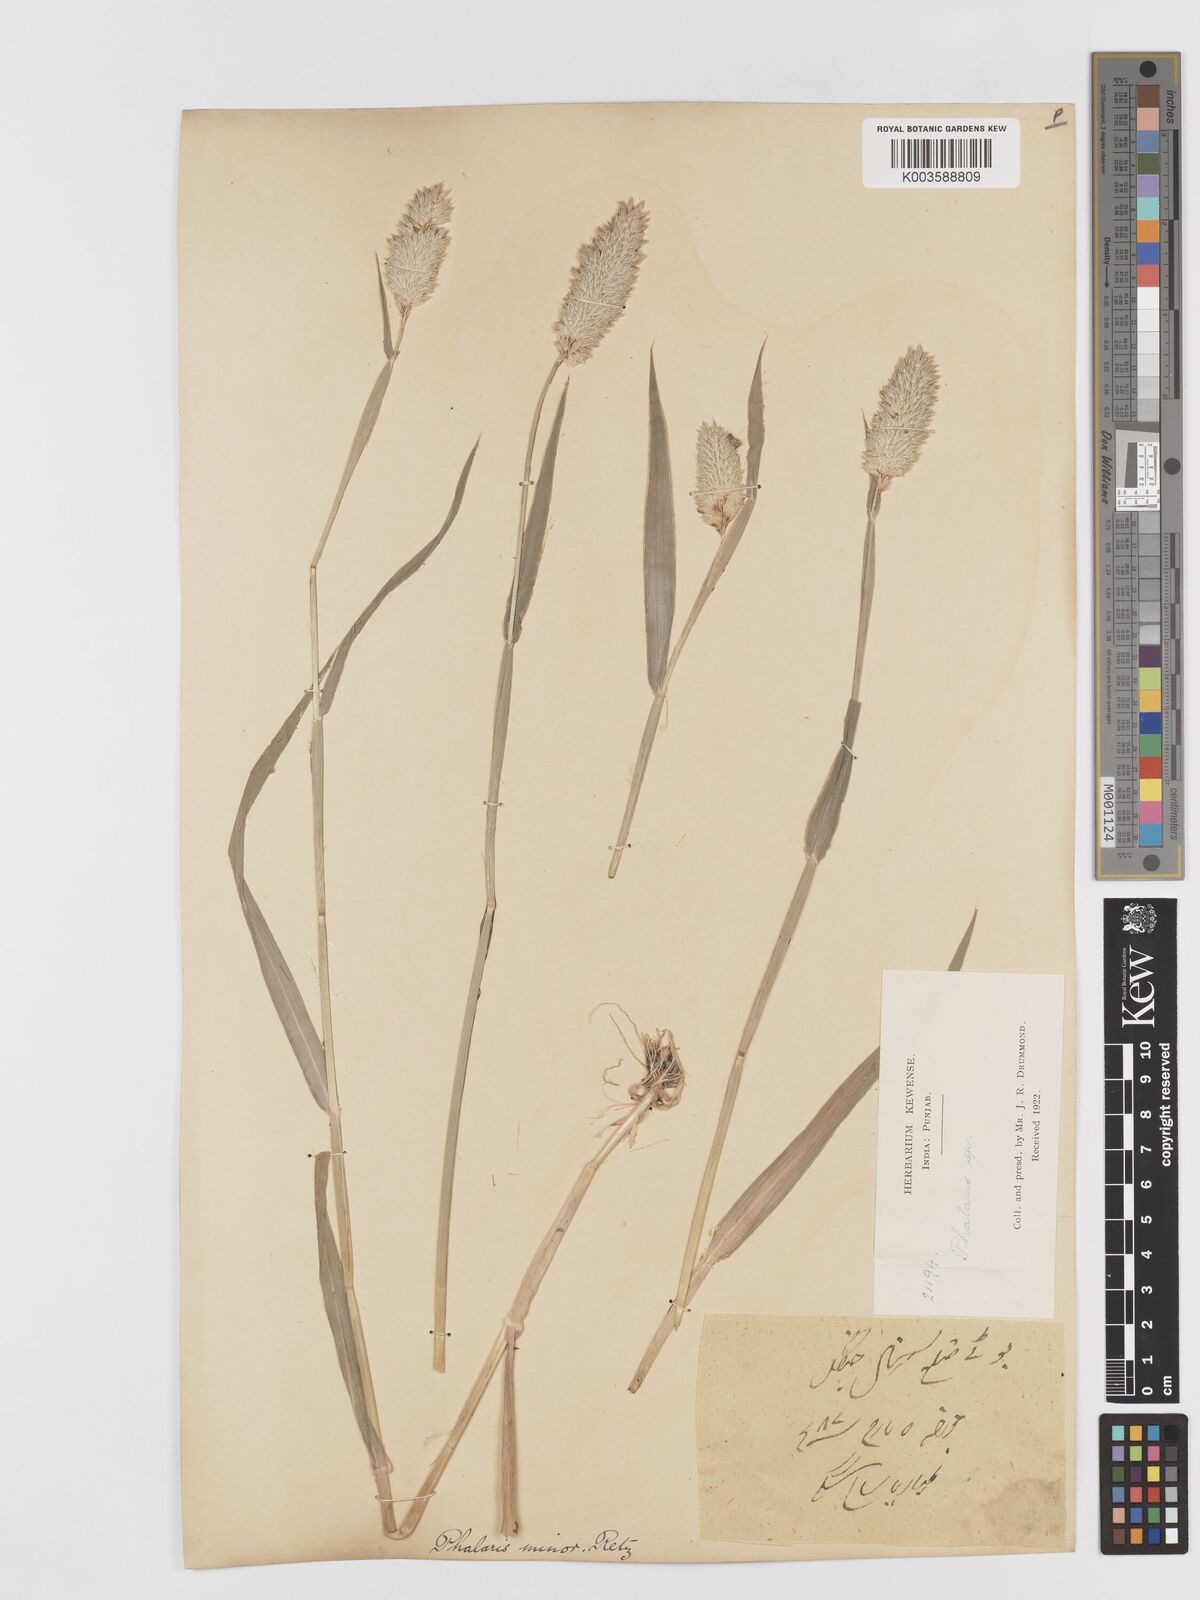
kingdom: Plantae
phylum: Tracheophyta
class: Liliopsida
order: Poales
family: Poaceae
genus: Phalaris
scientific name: Phalaris minor
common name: Littleseed canarygrass
